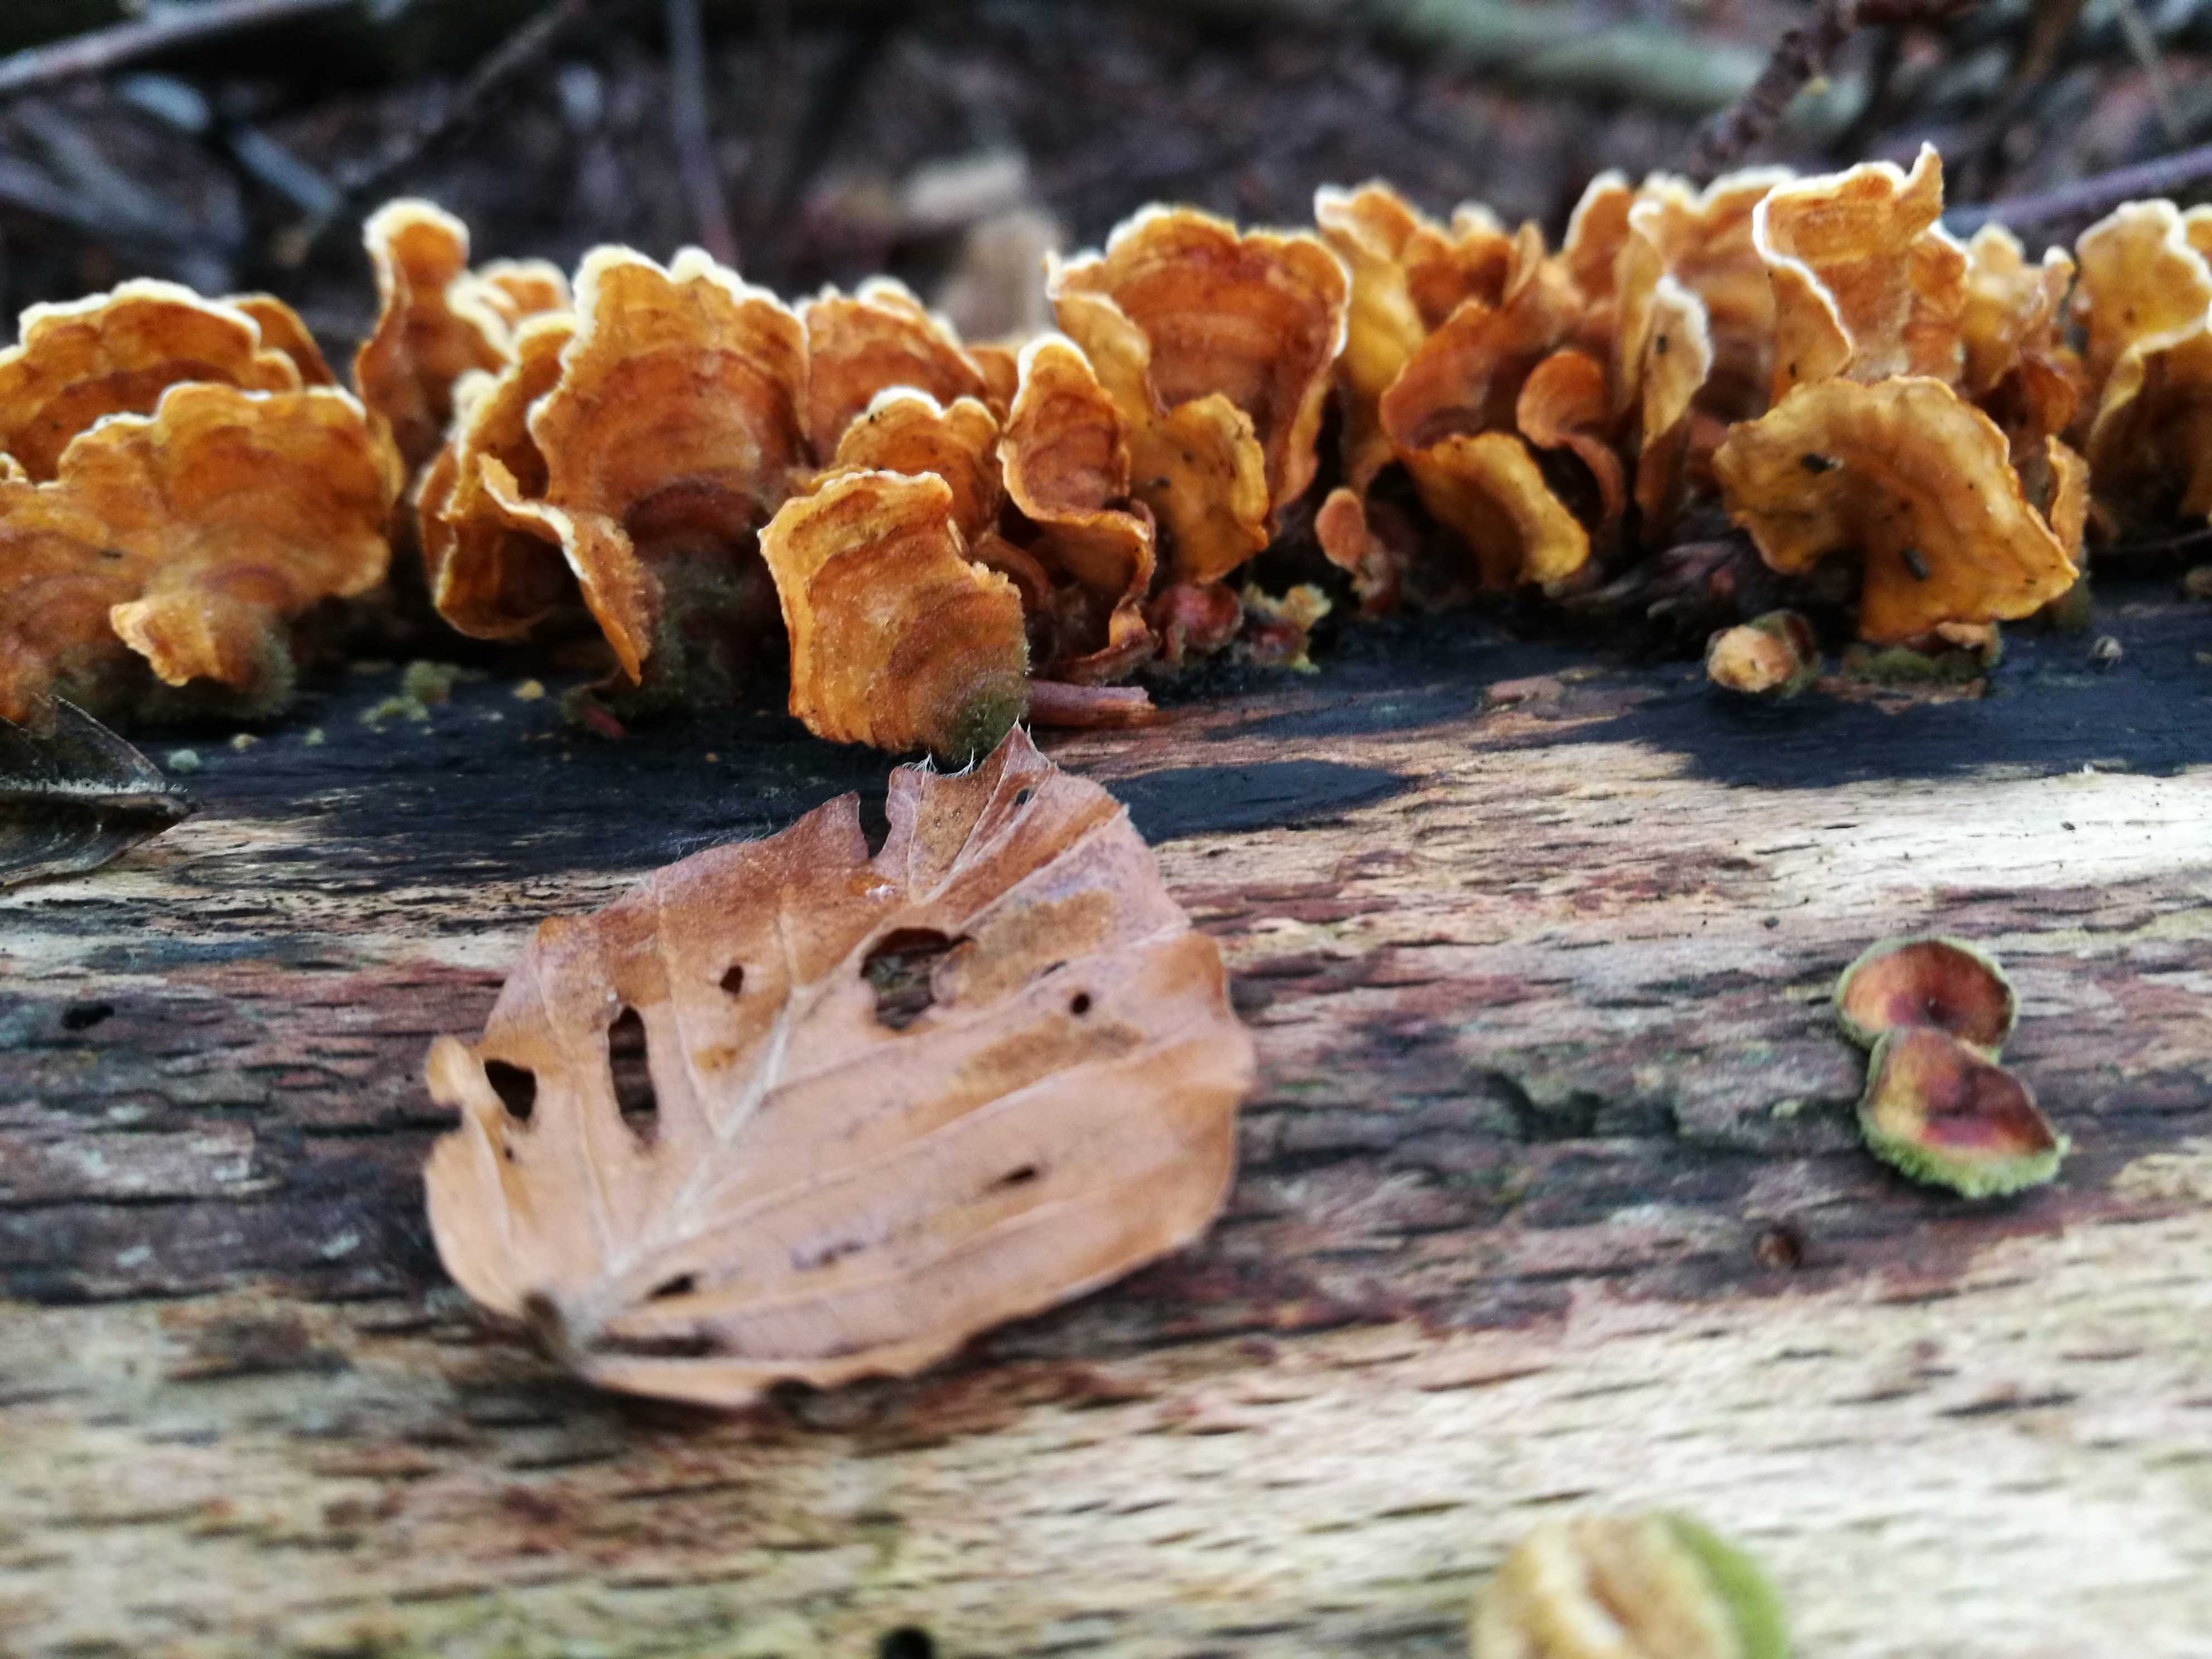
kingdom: Fungi
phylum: Basidiomycota
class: Agaricomycetes
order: Russulales
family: Stereaceae
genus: Stereum
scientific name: Stereum hirsutum
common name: håret lædersvamp
